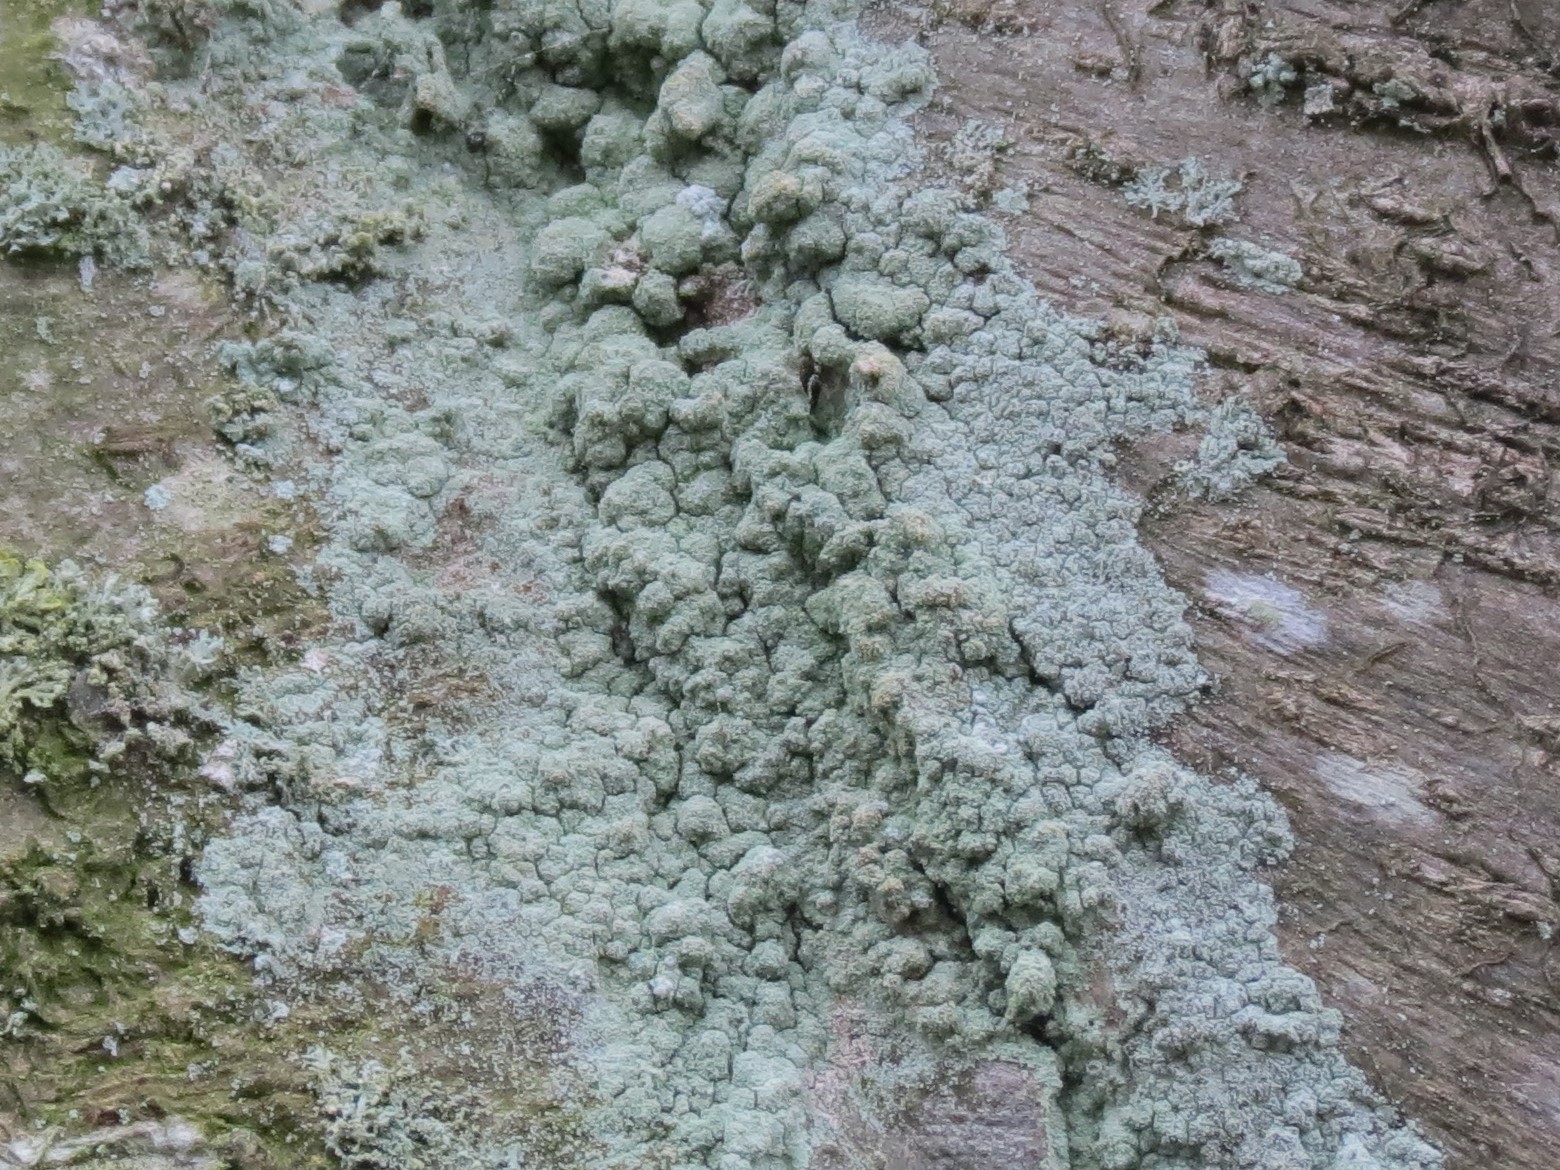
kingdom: Fungi
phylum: Ascomycota
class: Lecanoromycetes
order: Lecanorales
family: Stereocaulaceae
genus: Lepraria
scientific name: Lepraria
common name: støvlav
